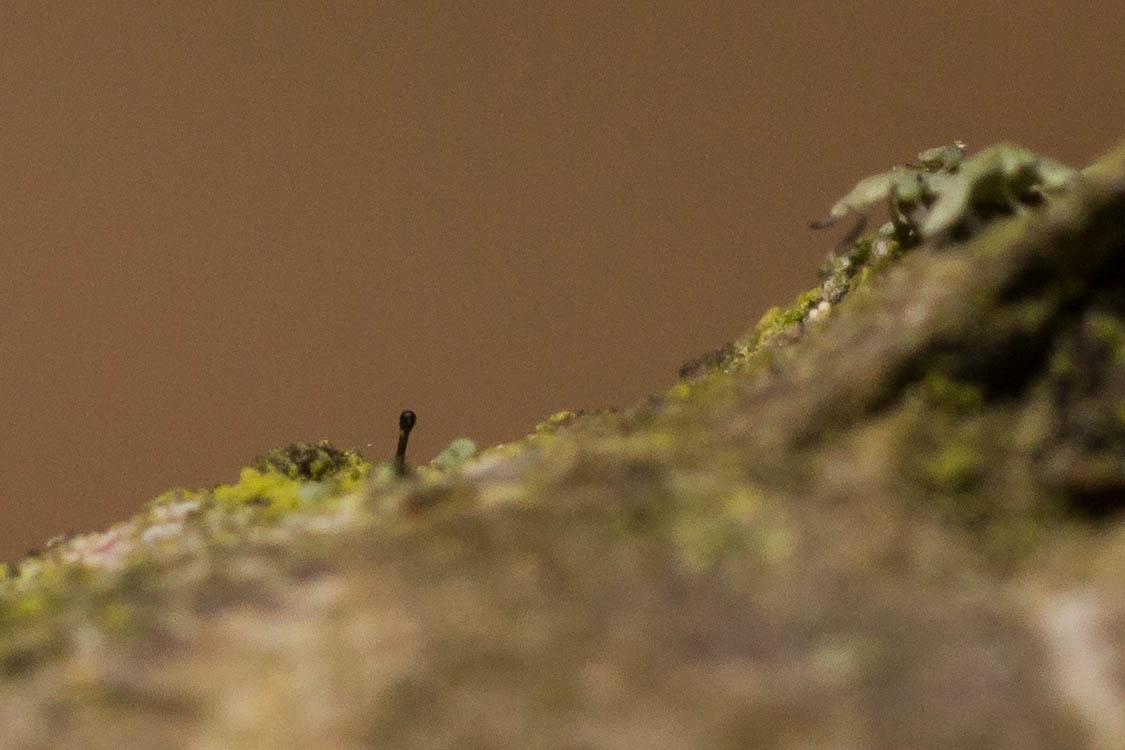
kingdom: Fungi
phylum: Ascomycota
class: Eurotiomycetes
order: Mycocaliciales
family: Mycocaliciaceae
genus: Stenocybe
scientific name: Stenocybe pullatula
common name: elle-nålesvamp
